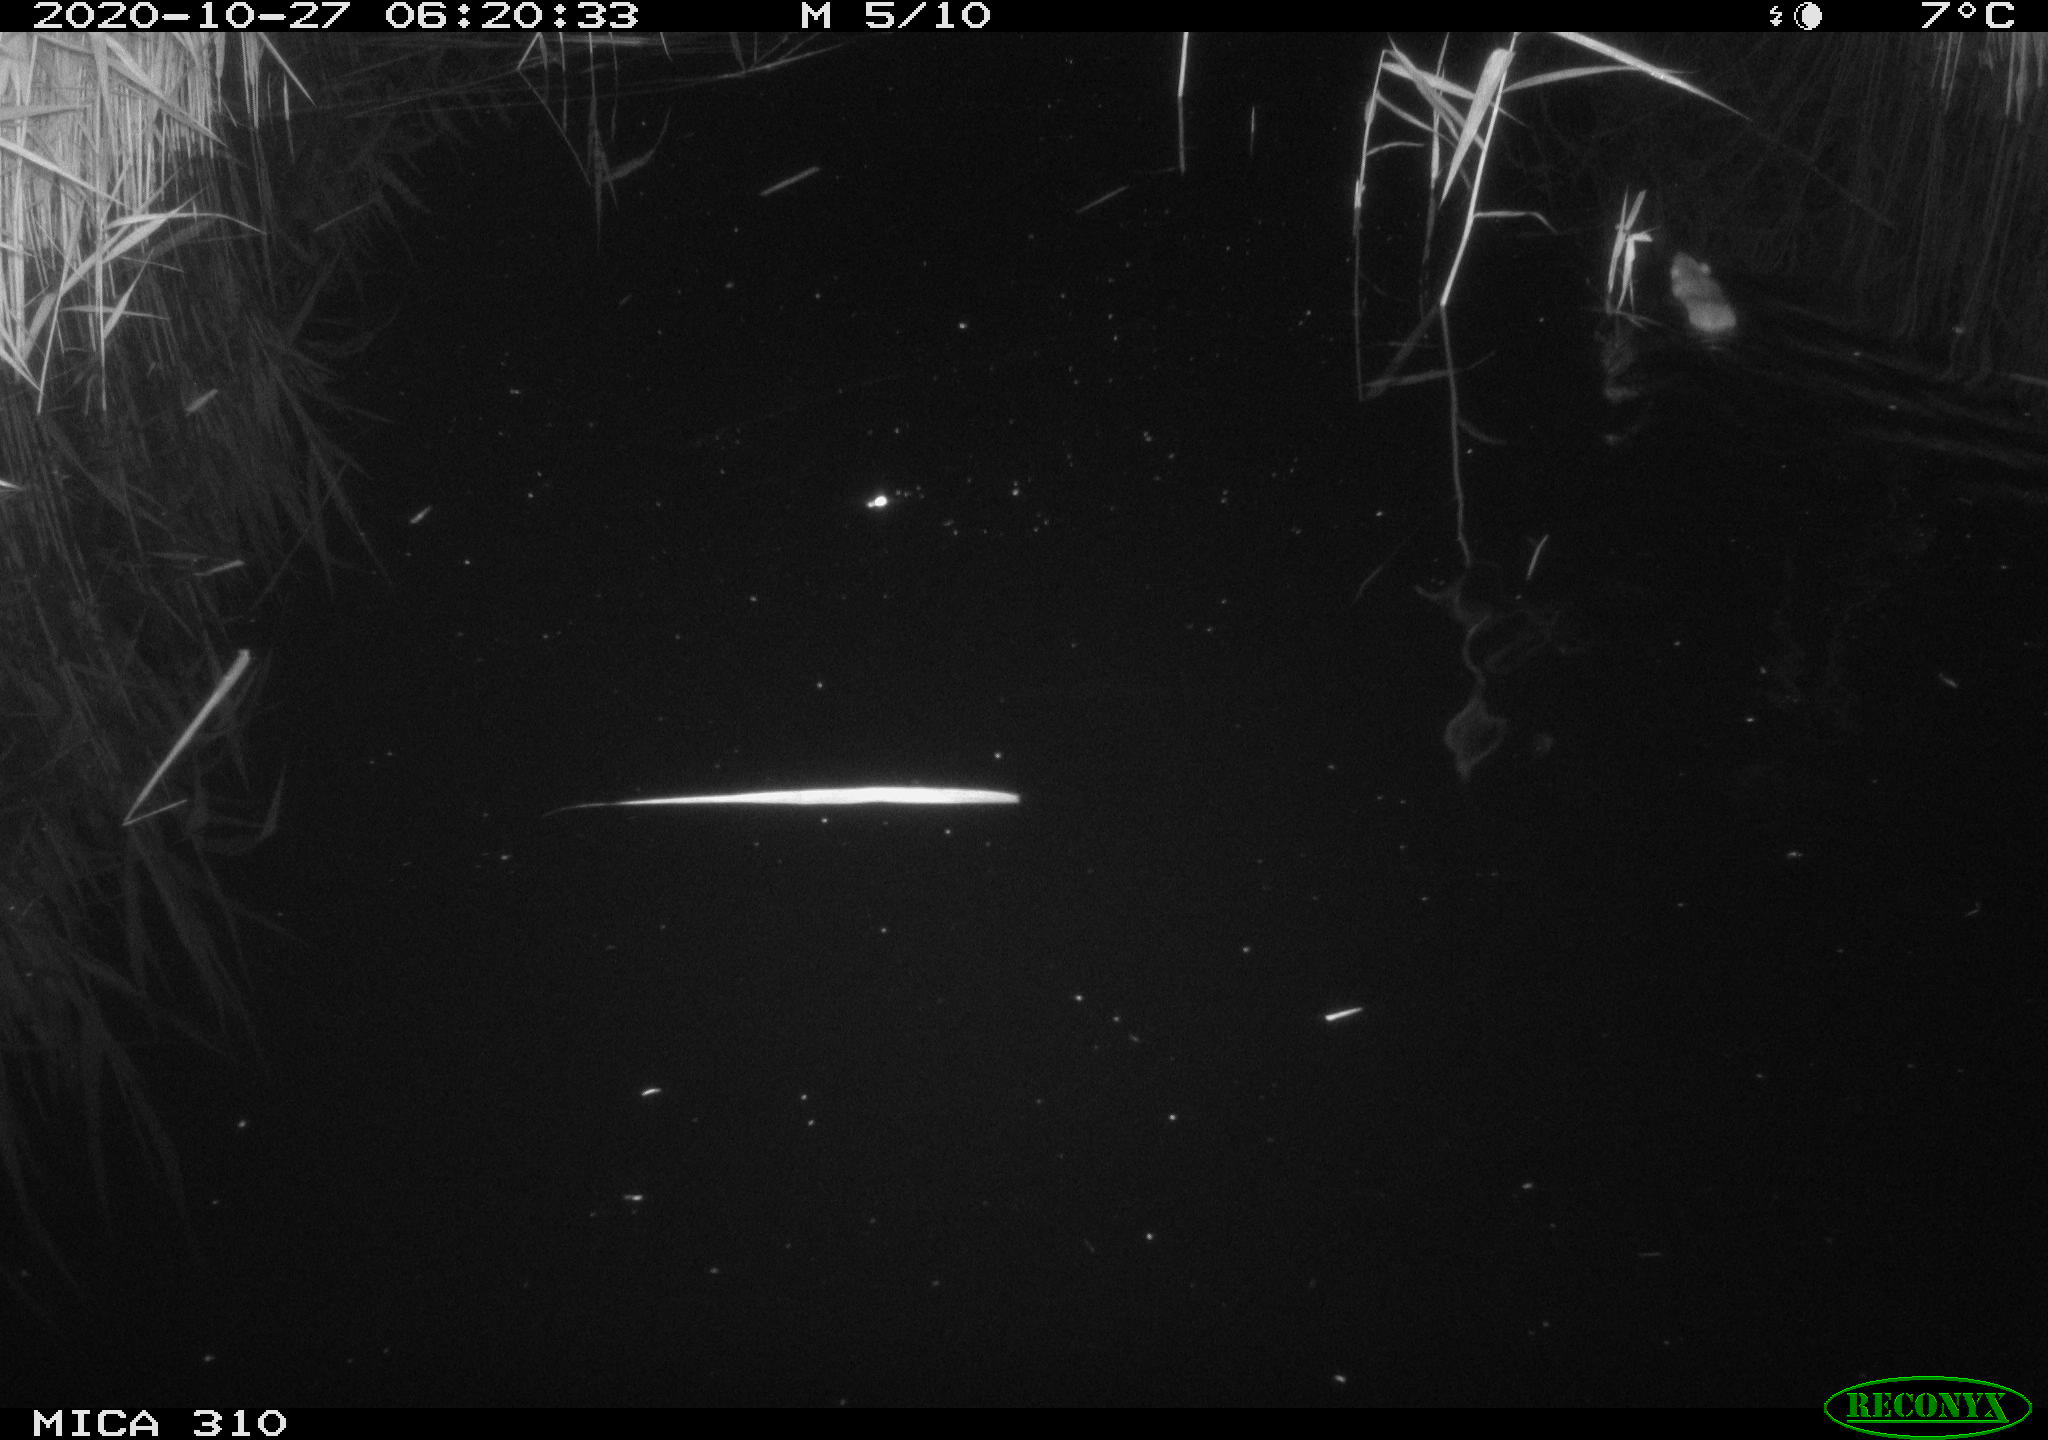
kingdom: Animalia
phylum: Chordata
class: Mammalia
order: Rodentia
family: Muridae
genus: Rattus
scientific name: Rattus norvegicus
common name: Brown rat
